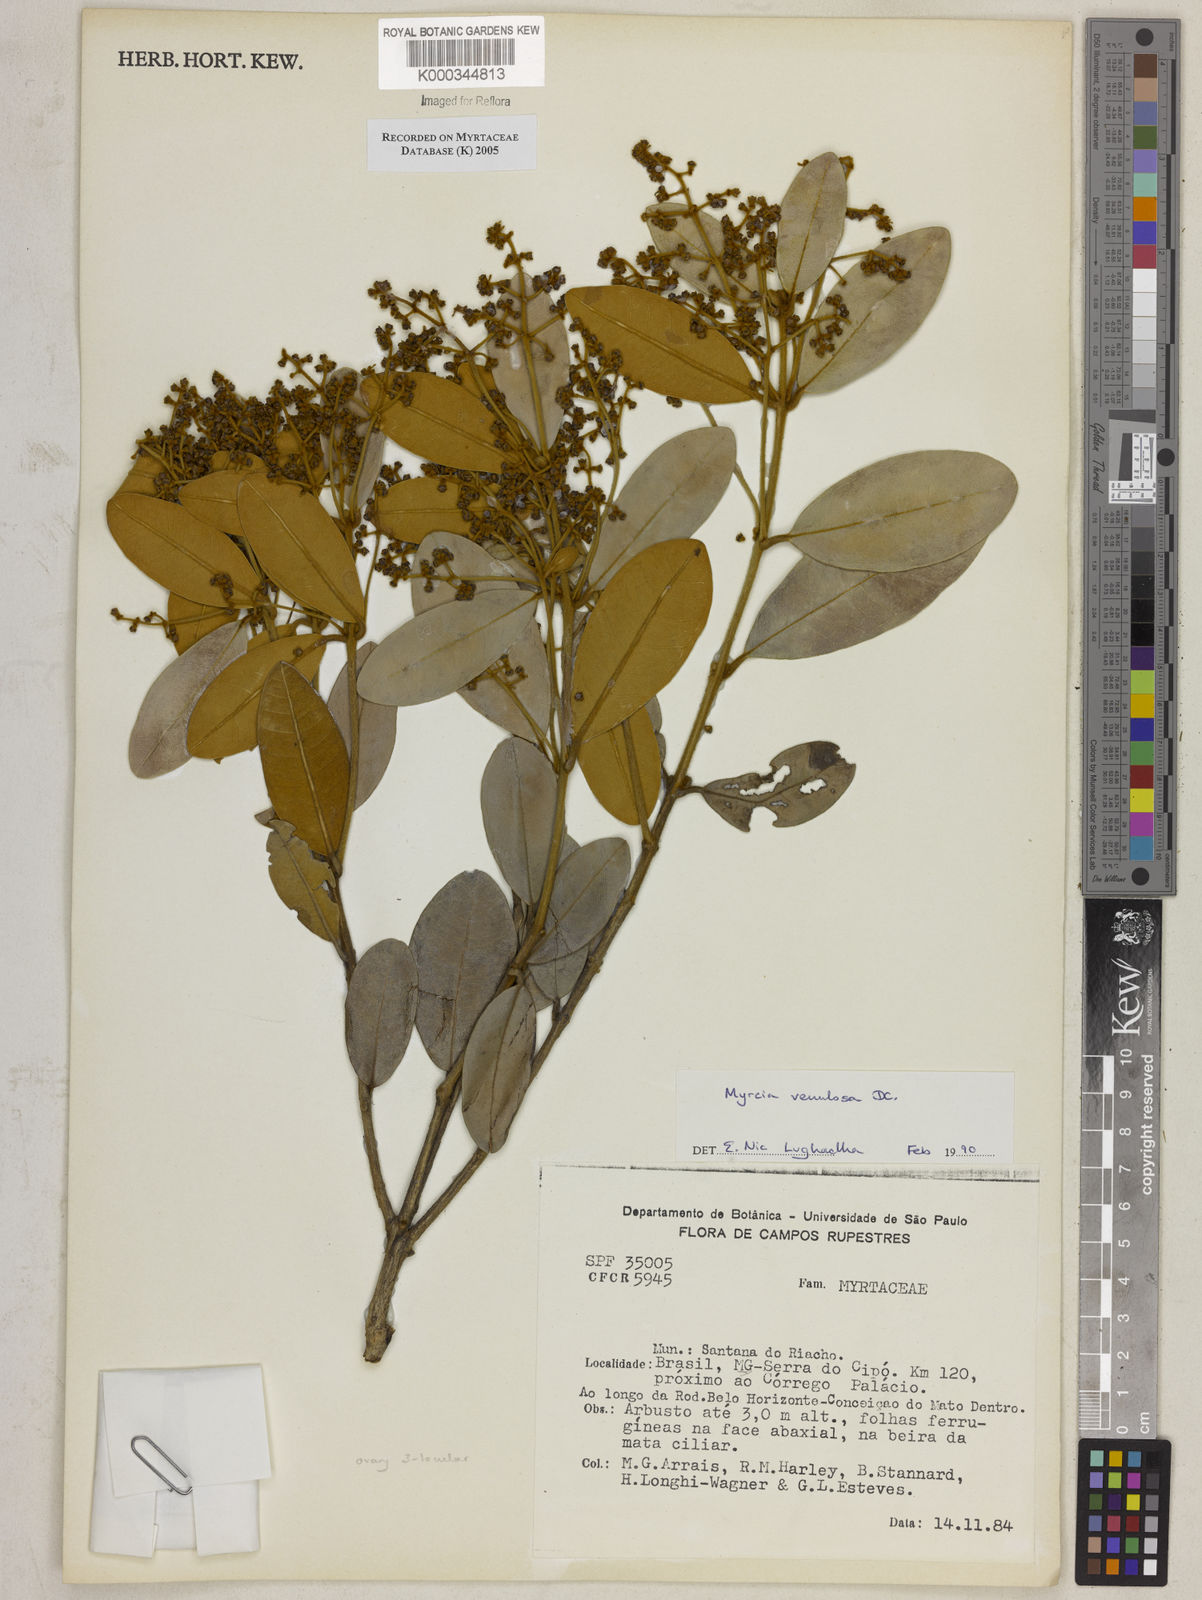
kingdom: Plantae
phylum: Tracheophyta
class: Magnoliopsida
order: Myrtales
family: Myrtaceae
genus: Myrcia
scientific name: Myrcia venulosa
